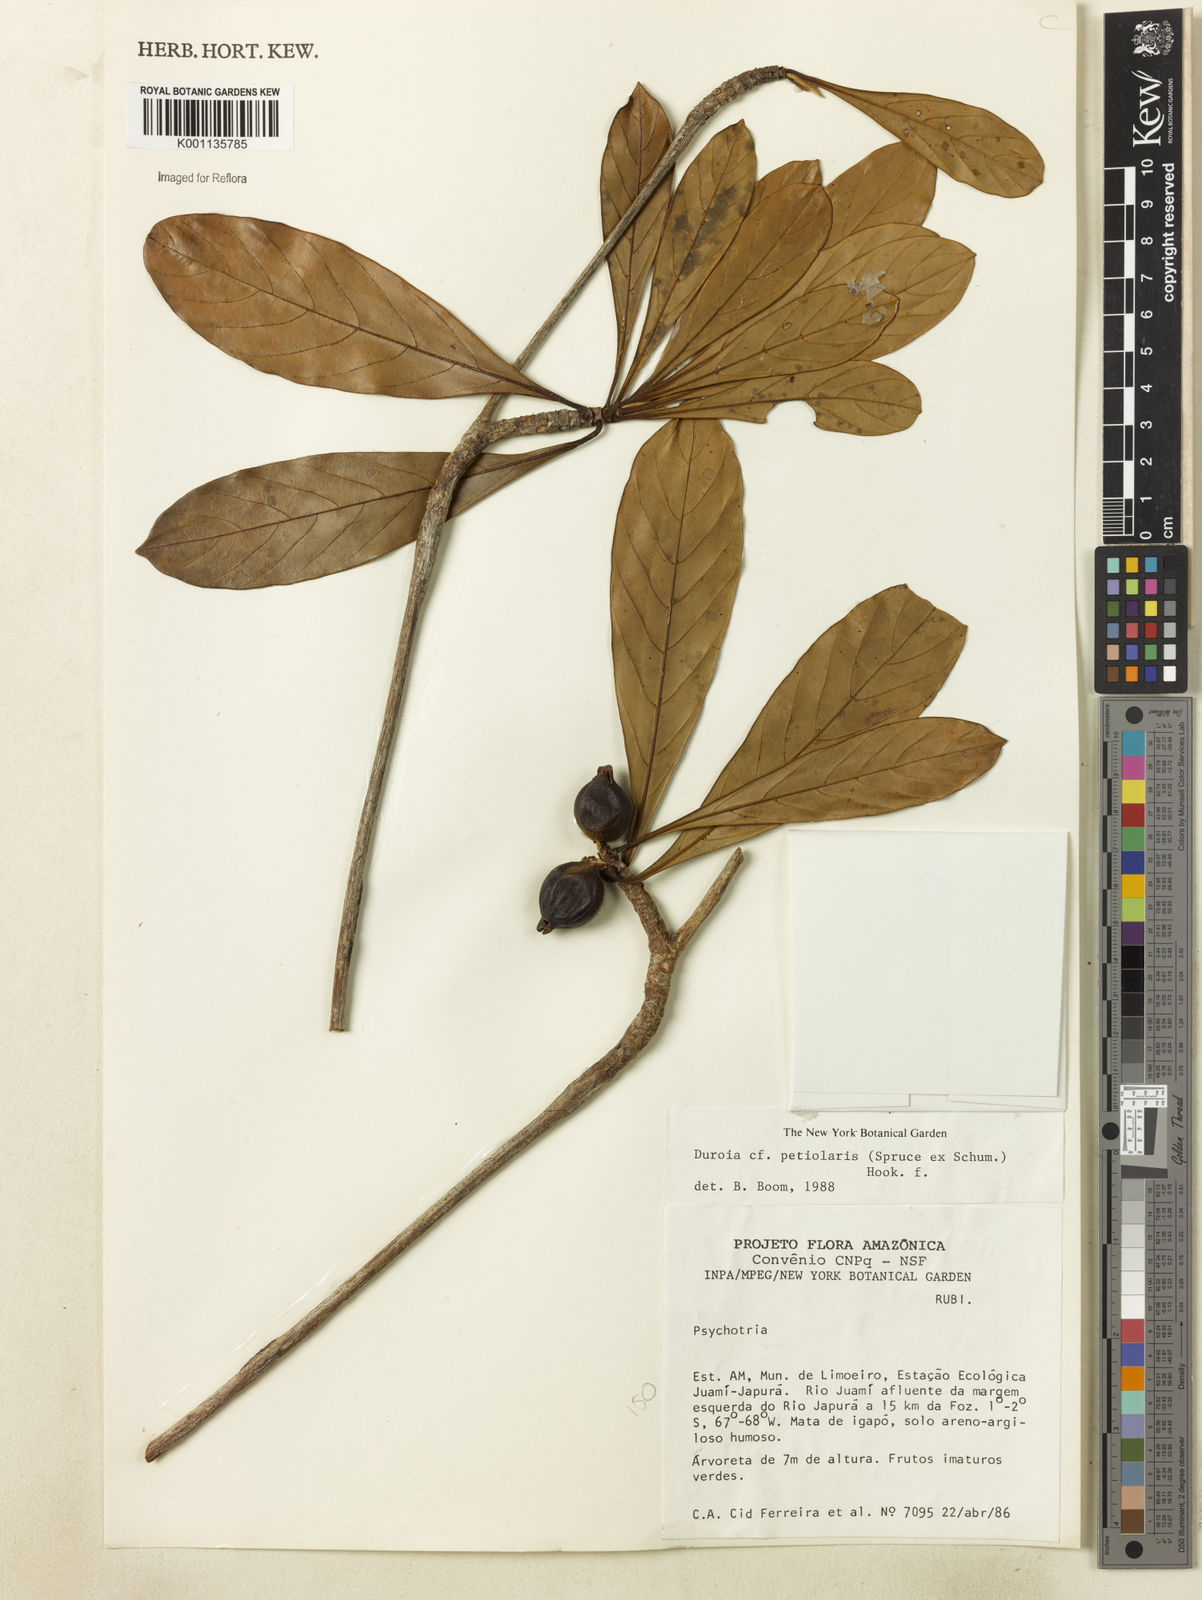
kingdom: Plantae
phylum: Tracheophyta
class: Magnoliopsida
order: Gentianales
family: Rubiaceae
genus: Duroia
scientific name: Duroia petiolaris
